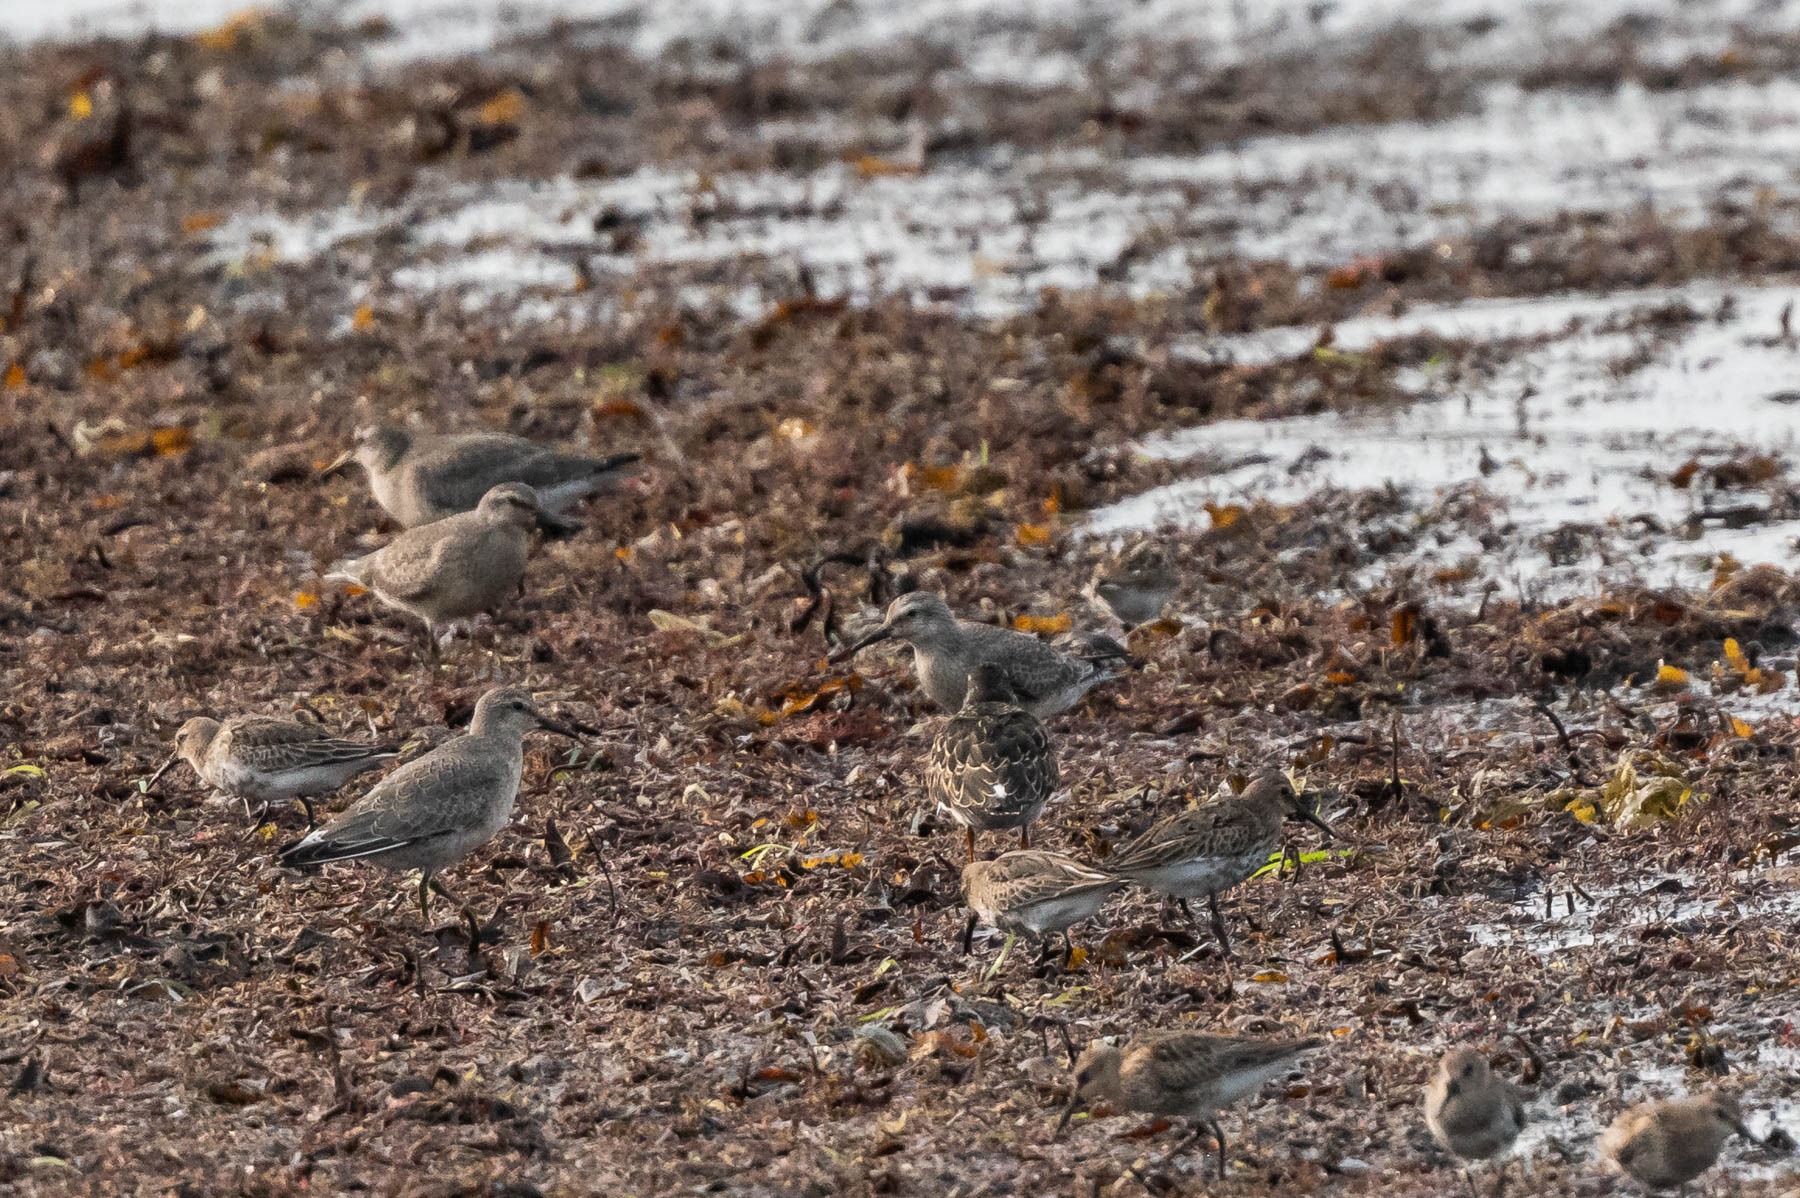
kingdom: Animalia
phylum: Chordata
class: Aves
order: Charadriiformes
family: Scolopacidae
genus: Calidris
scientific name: Calidris canutus
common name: Islandsk ryle
